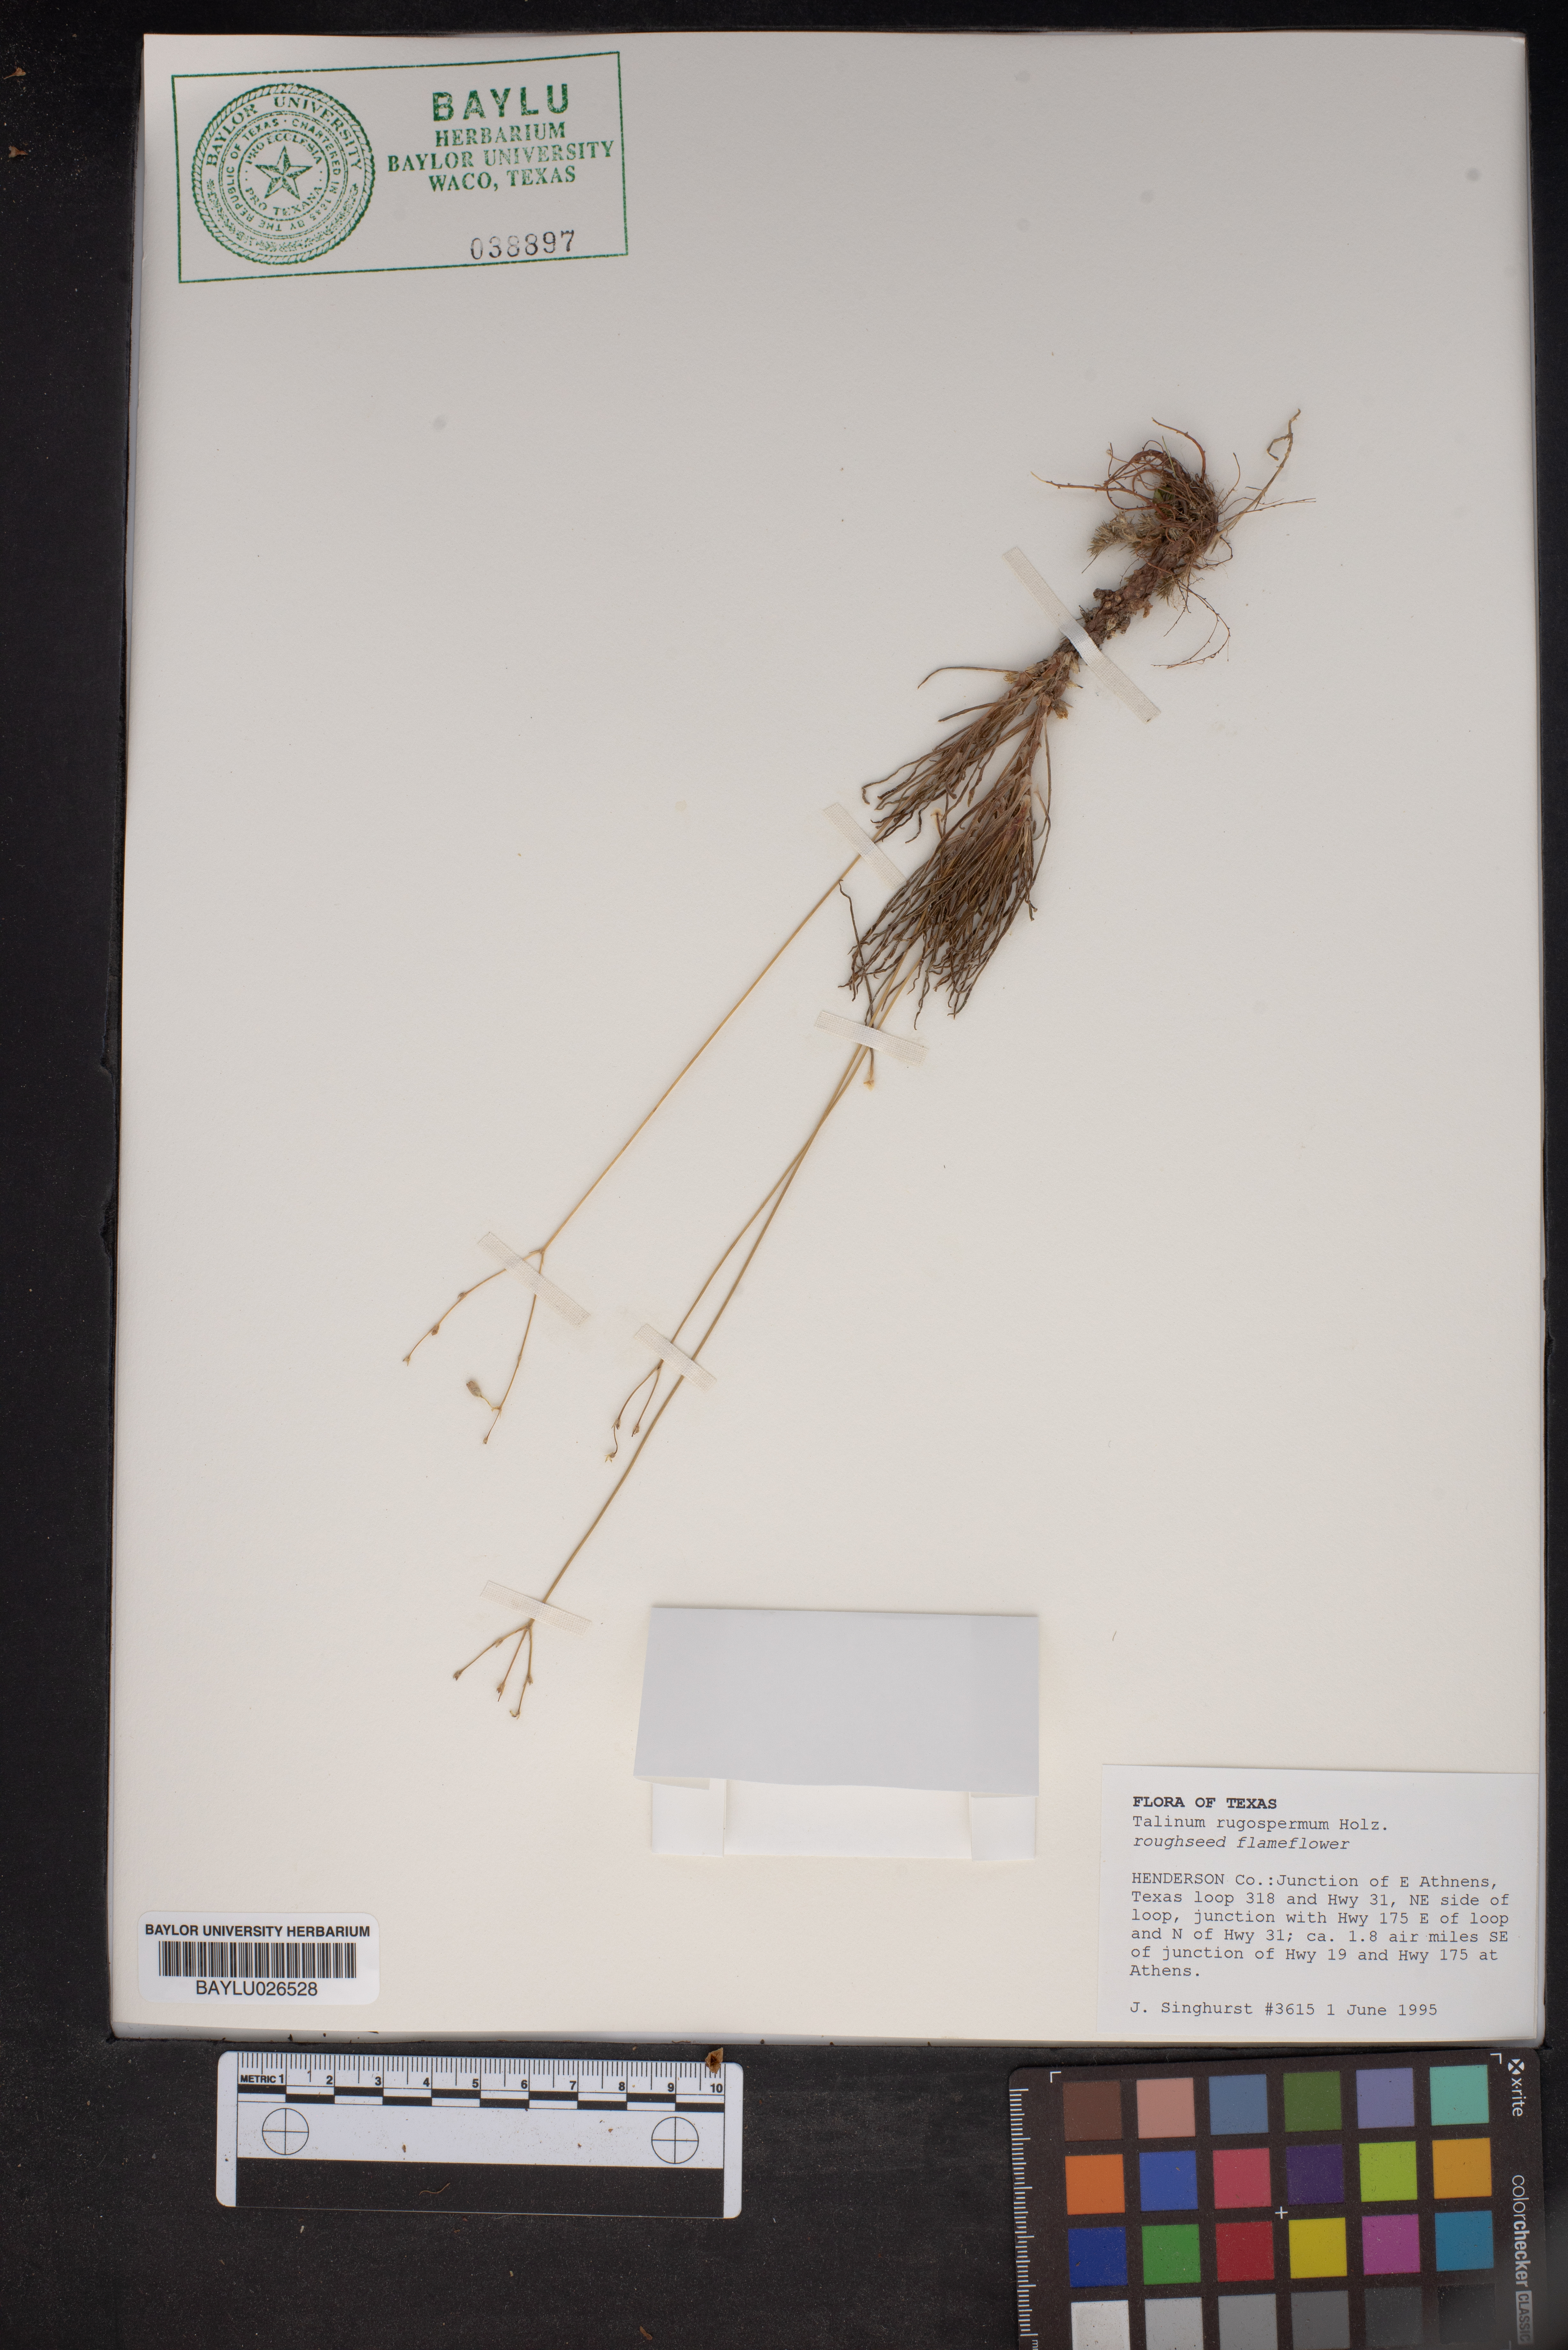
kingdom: Plantae
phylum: Tracheophyta
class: Magnoliopsida
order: Caryophyllales
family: Montiaceae
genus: Phemeranthus
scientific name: Phemeranthus rugospermus
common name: Prairie fameflower
